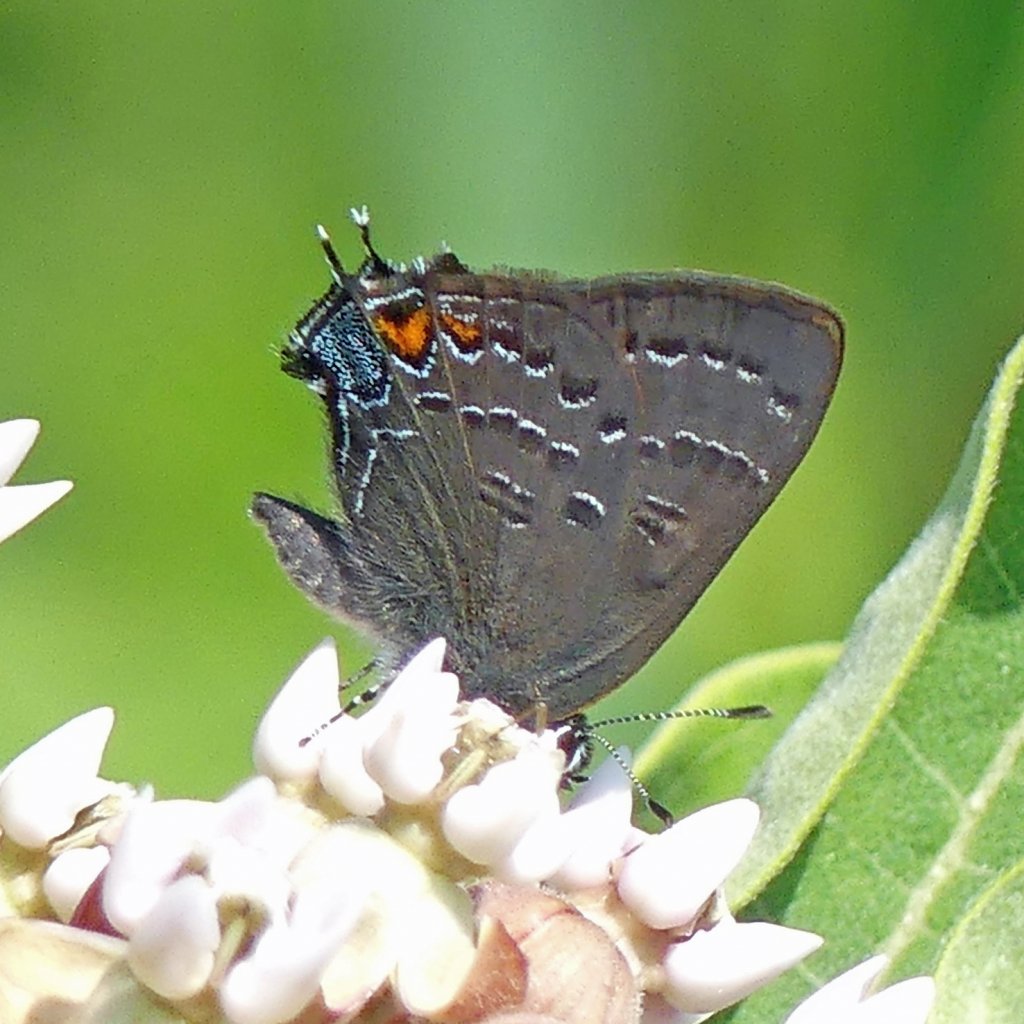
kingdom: Animalia
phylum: Arthropoda
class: Insecta
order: Lepidoptera
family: Lycaenidae
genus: Satyrium
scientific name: Satyrium calanus
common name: Banded Hairstreak
